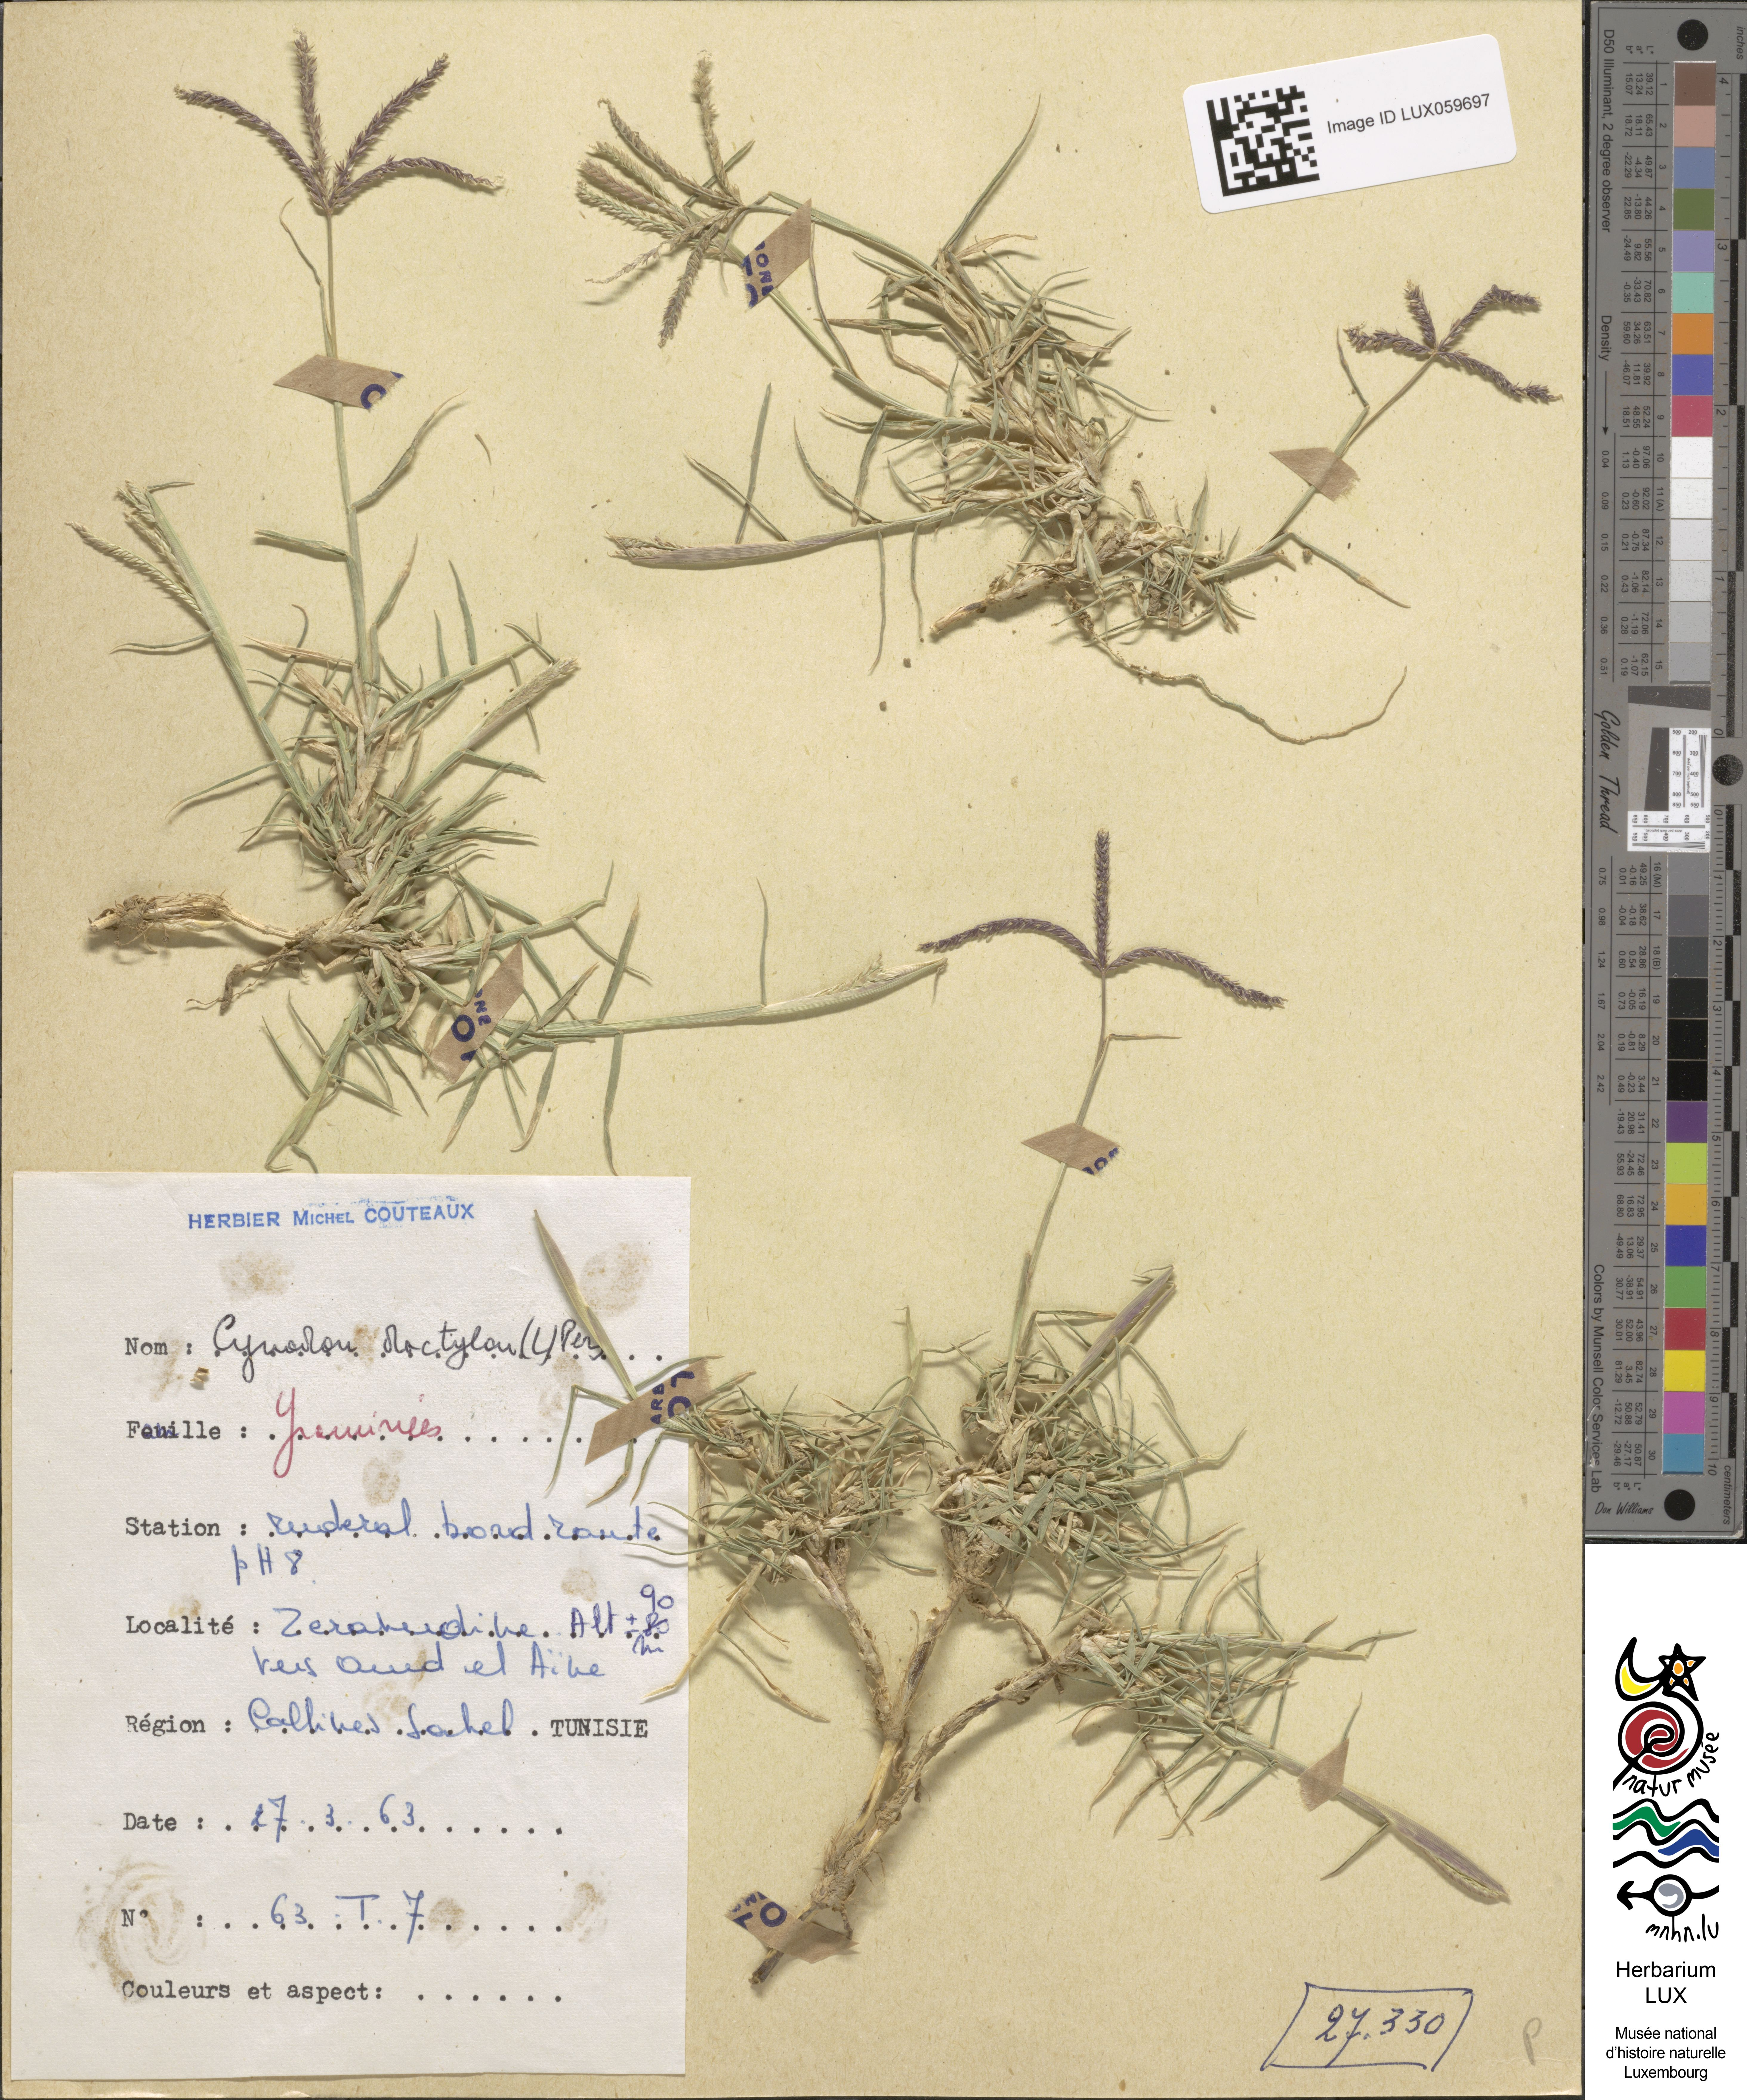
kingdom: Plantae
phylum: Tracheophyta
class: Liliopsida
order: Poales
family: Poaceae
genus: Cynodon
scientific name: Cynodon dactylon
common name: Bermuda grass
